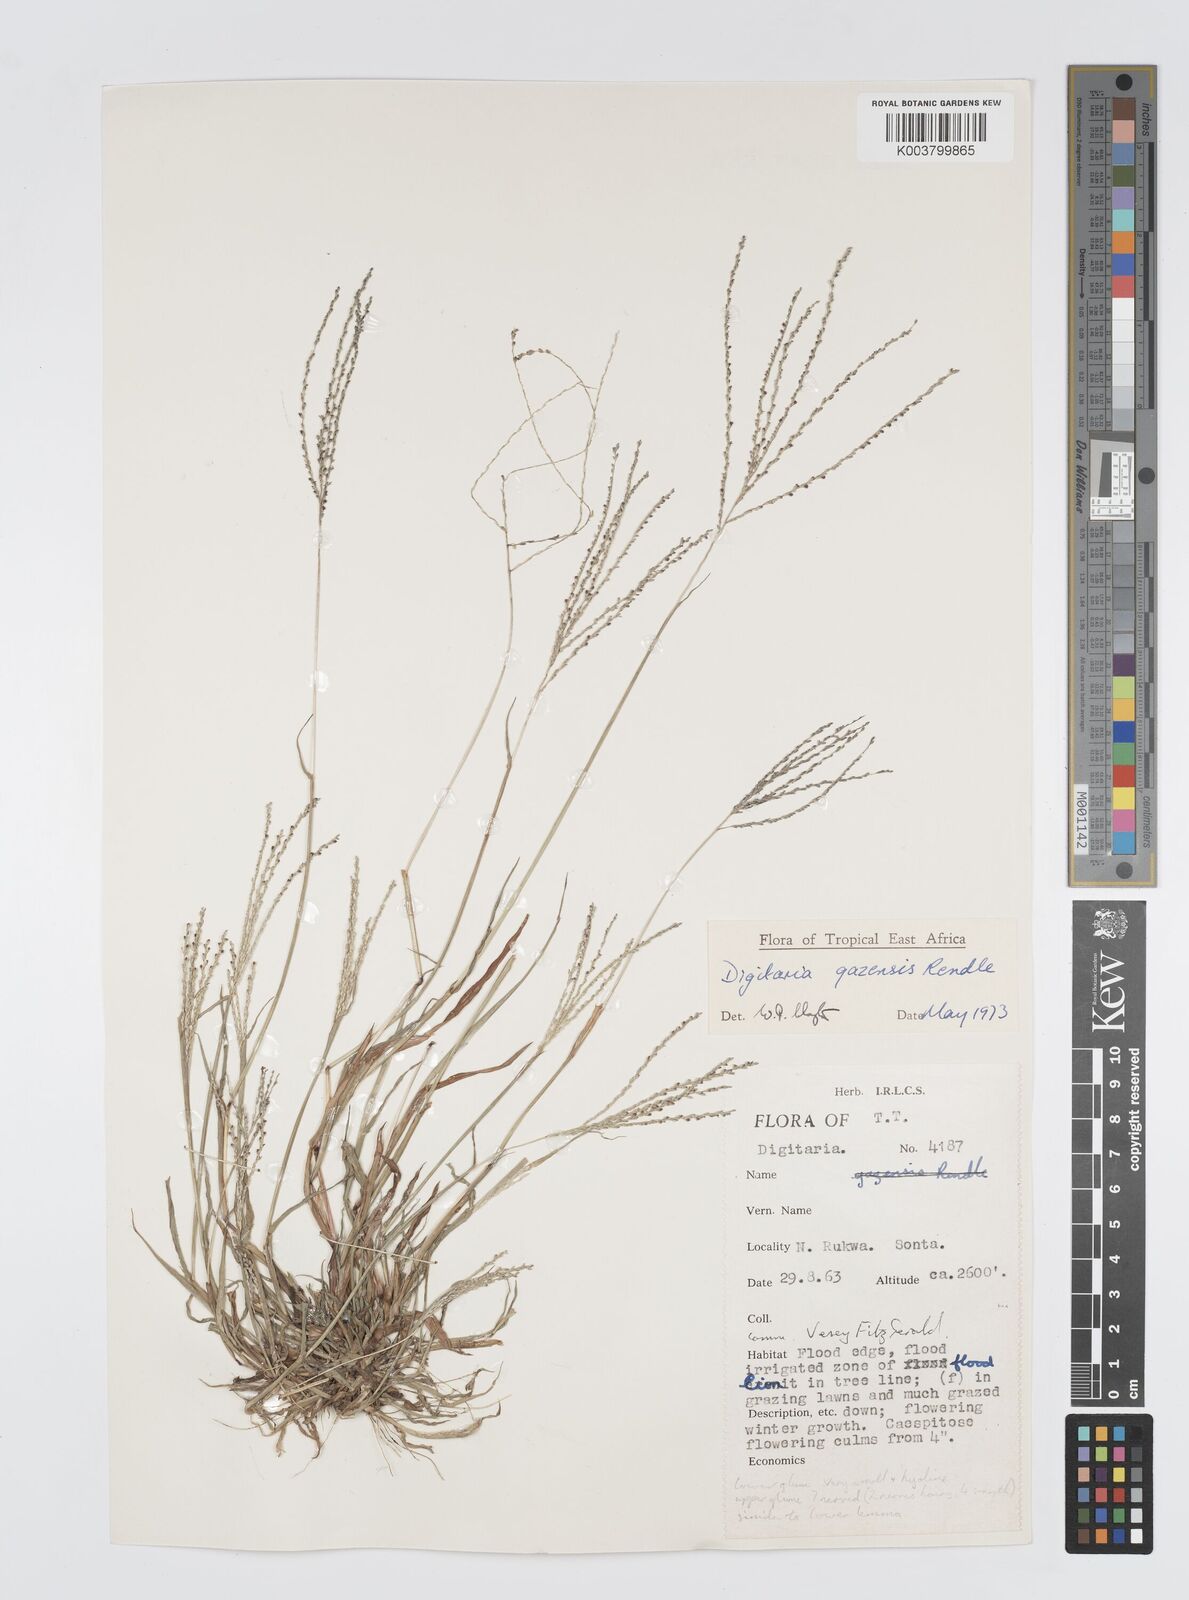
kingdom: Plantae
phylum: Tracheophyta
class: Liliopsida
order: Poales
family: Poaceae
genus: Digitaria
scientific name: Digitaria gazensis
